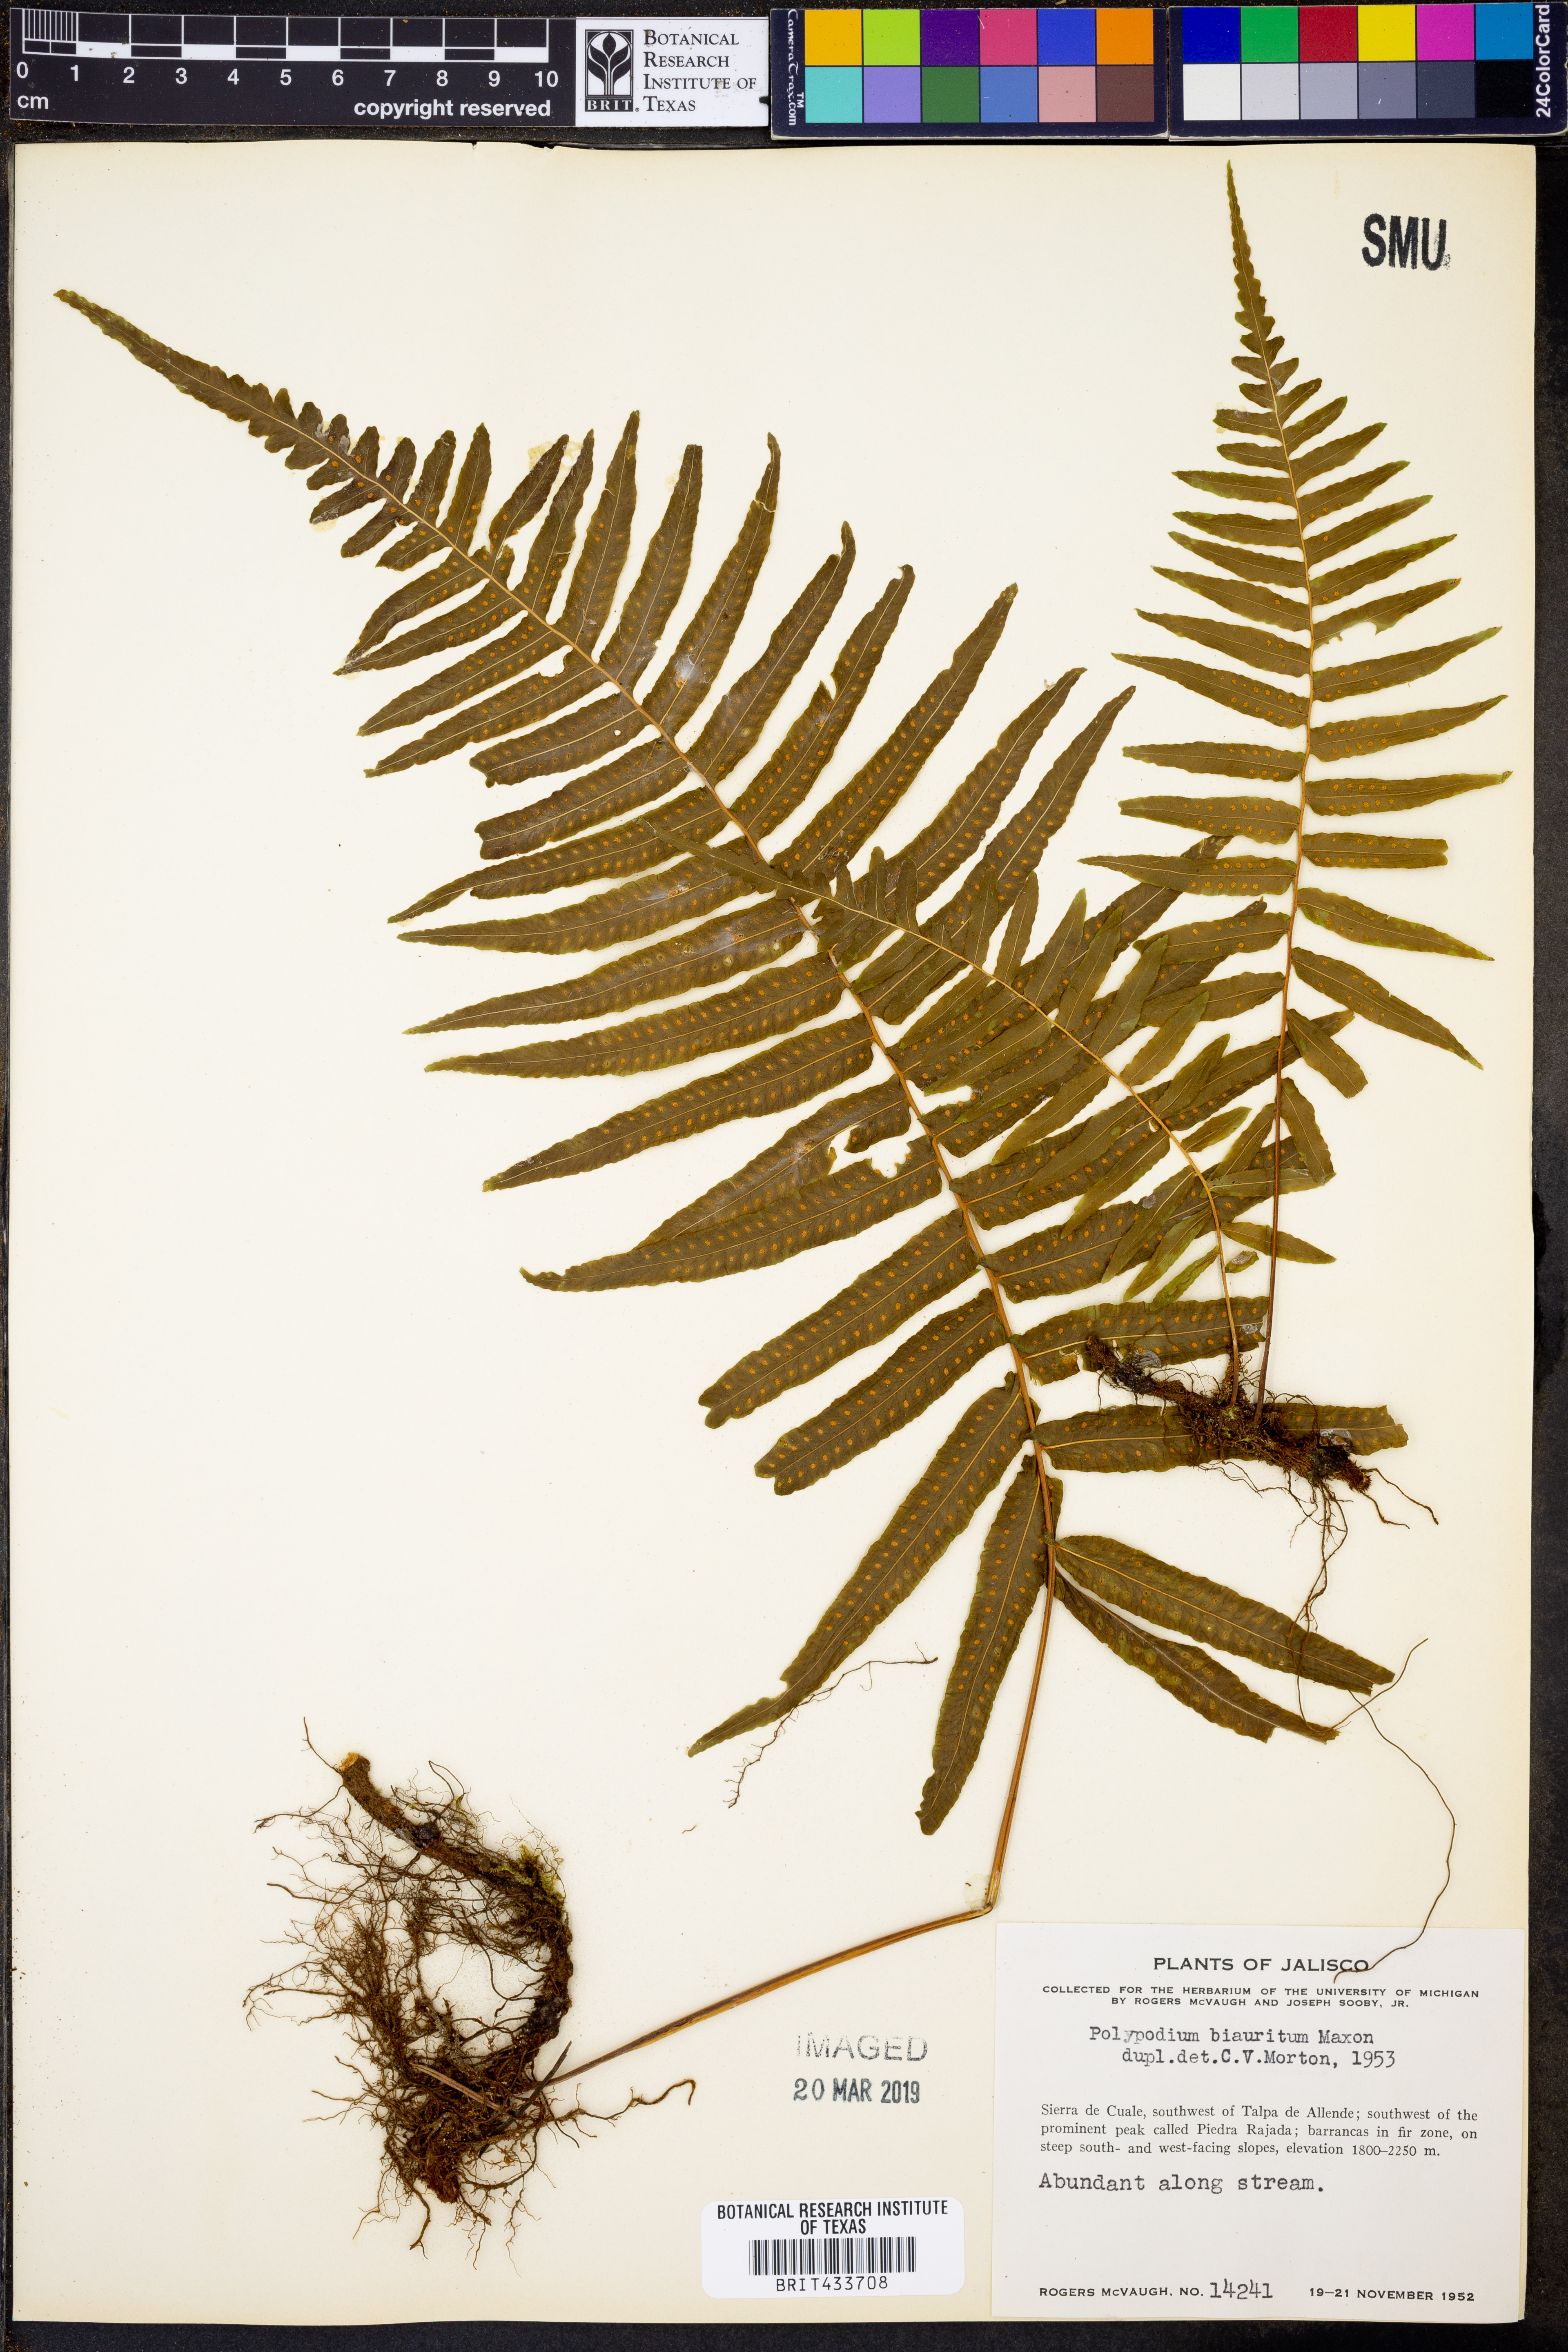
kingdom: Plantae
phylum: Tracheophyta
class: Polypodiopsida
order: Polypodiales
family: Polypodiaceae
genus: Pecluma
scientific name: Pecluma longepinnulata
